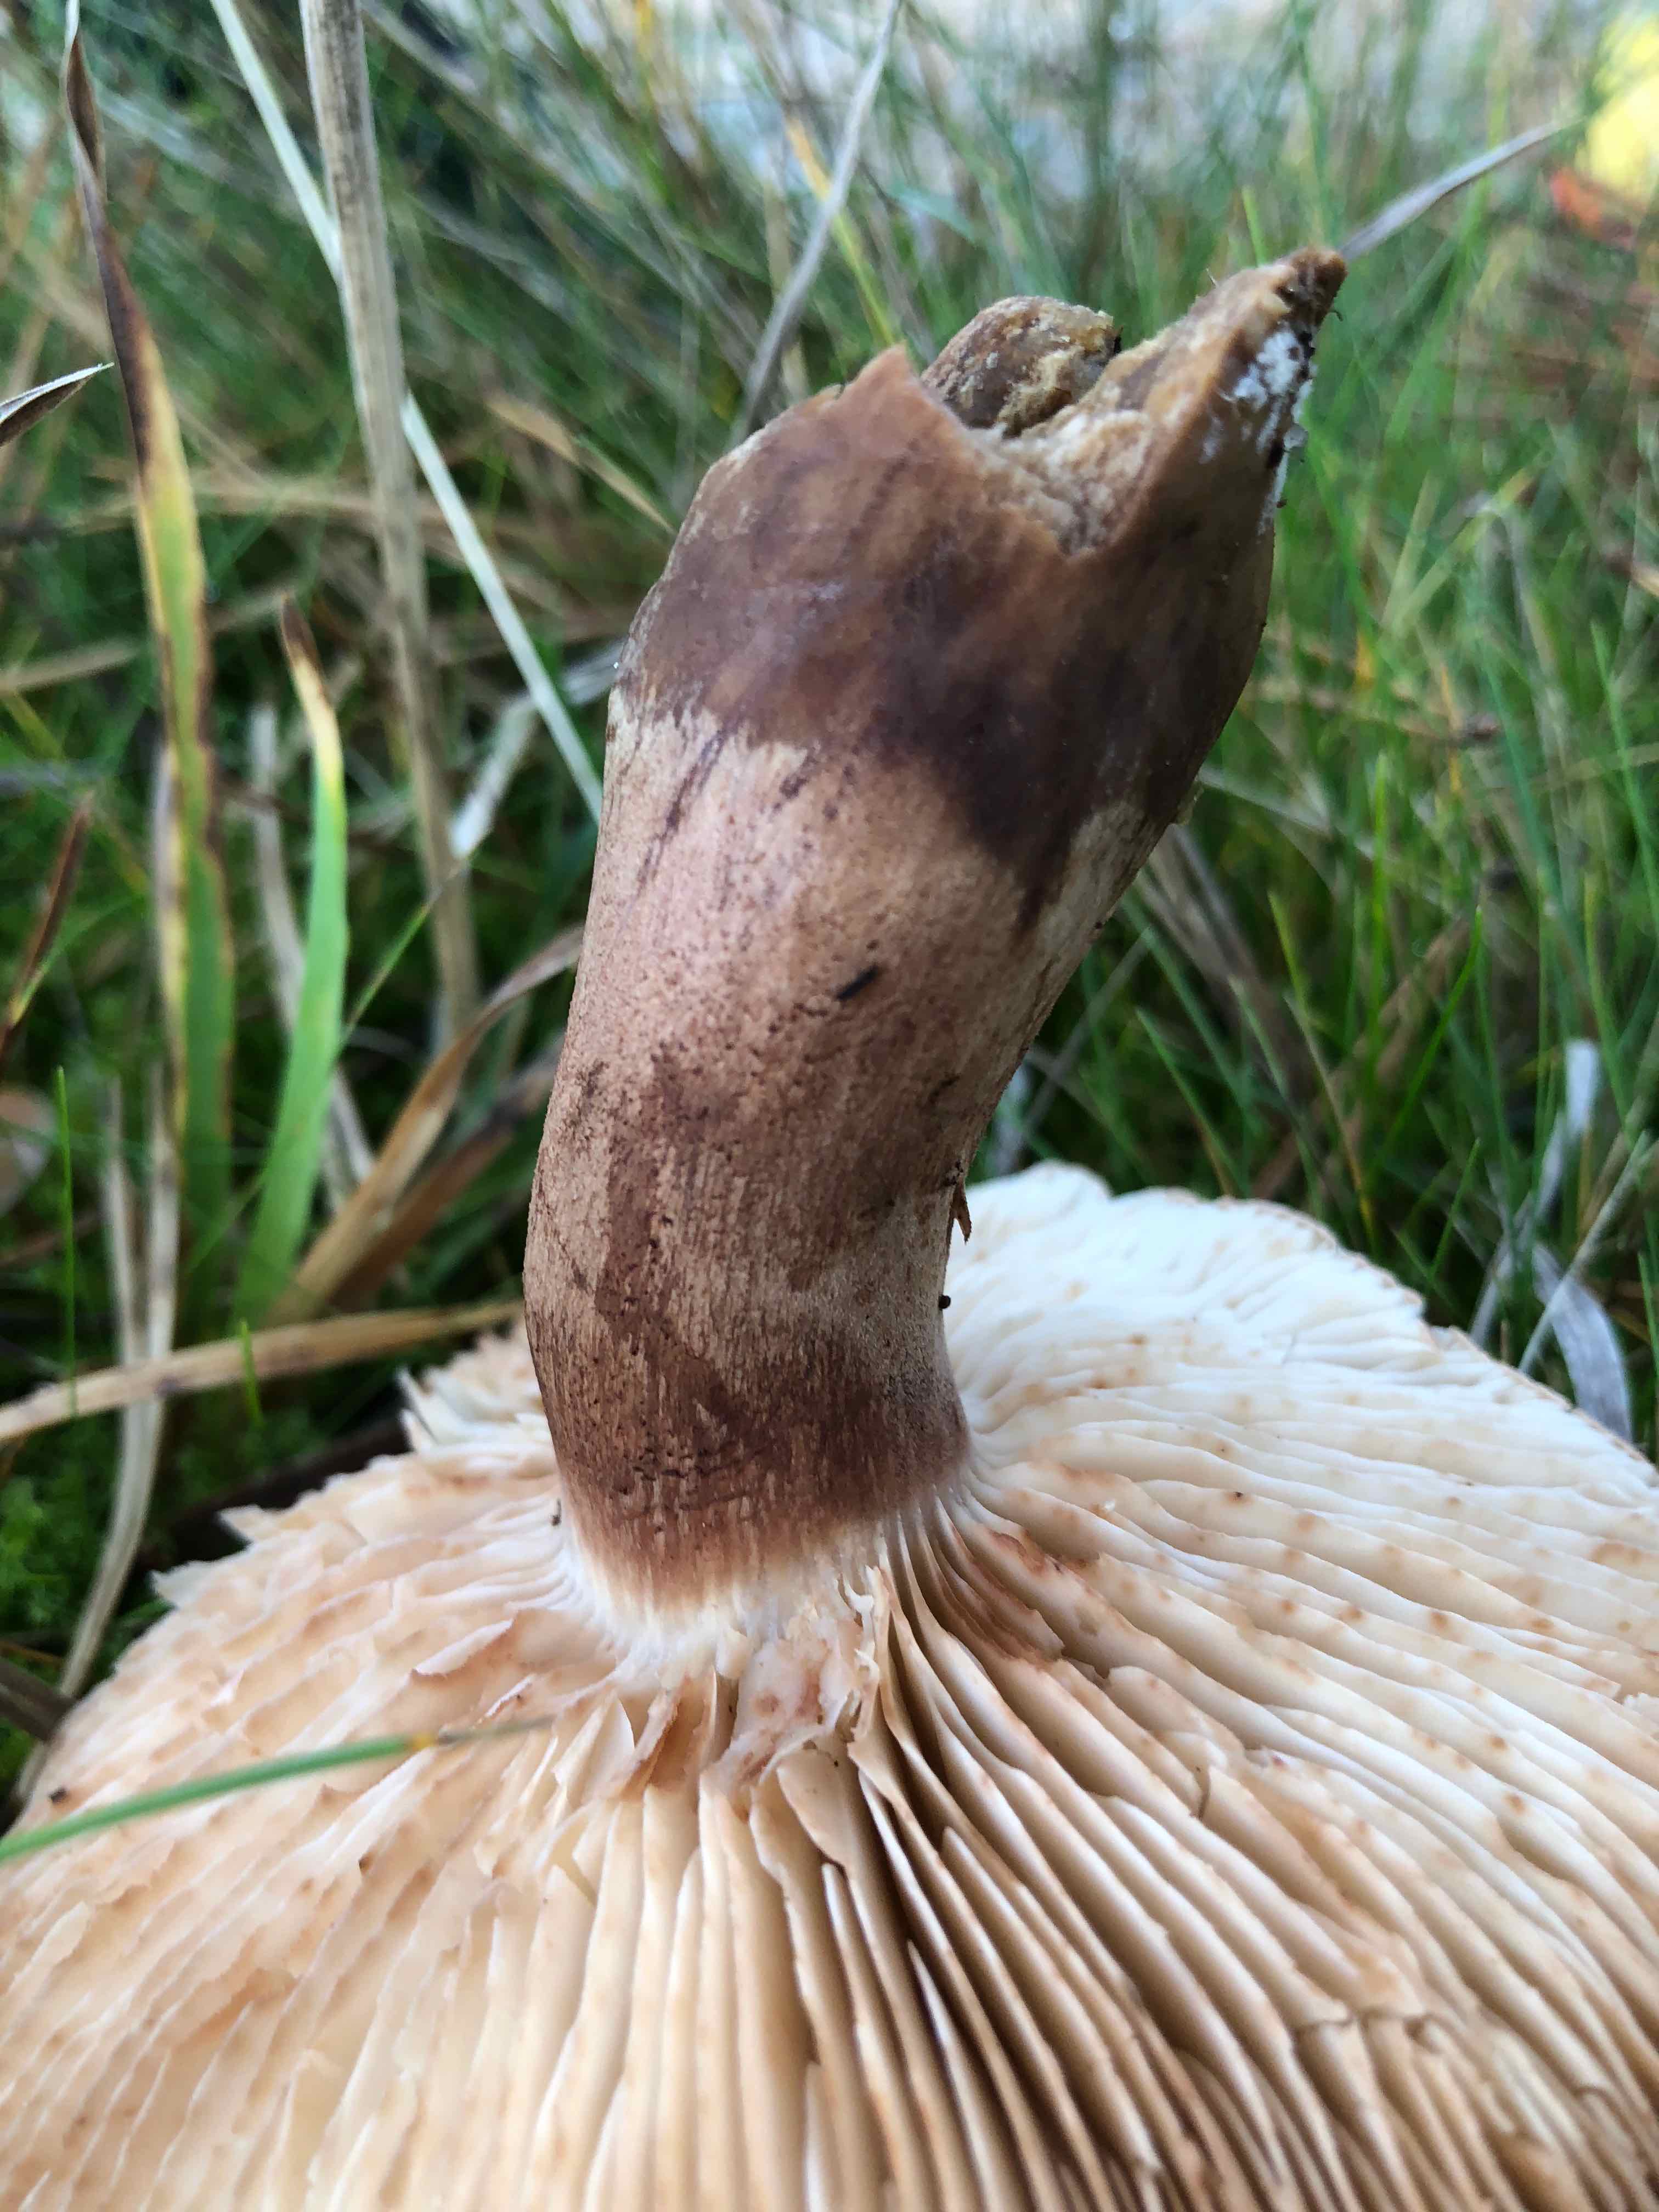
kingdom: Fungi
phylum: Basidiomycota
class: Agaricomycetes
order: Agaricales
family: Tricholomataceae
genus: Tricholoma
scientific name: Tricholoma imbricatum
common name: skællet ridderhat
